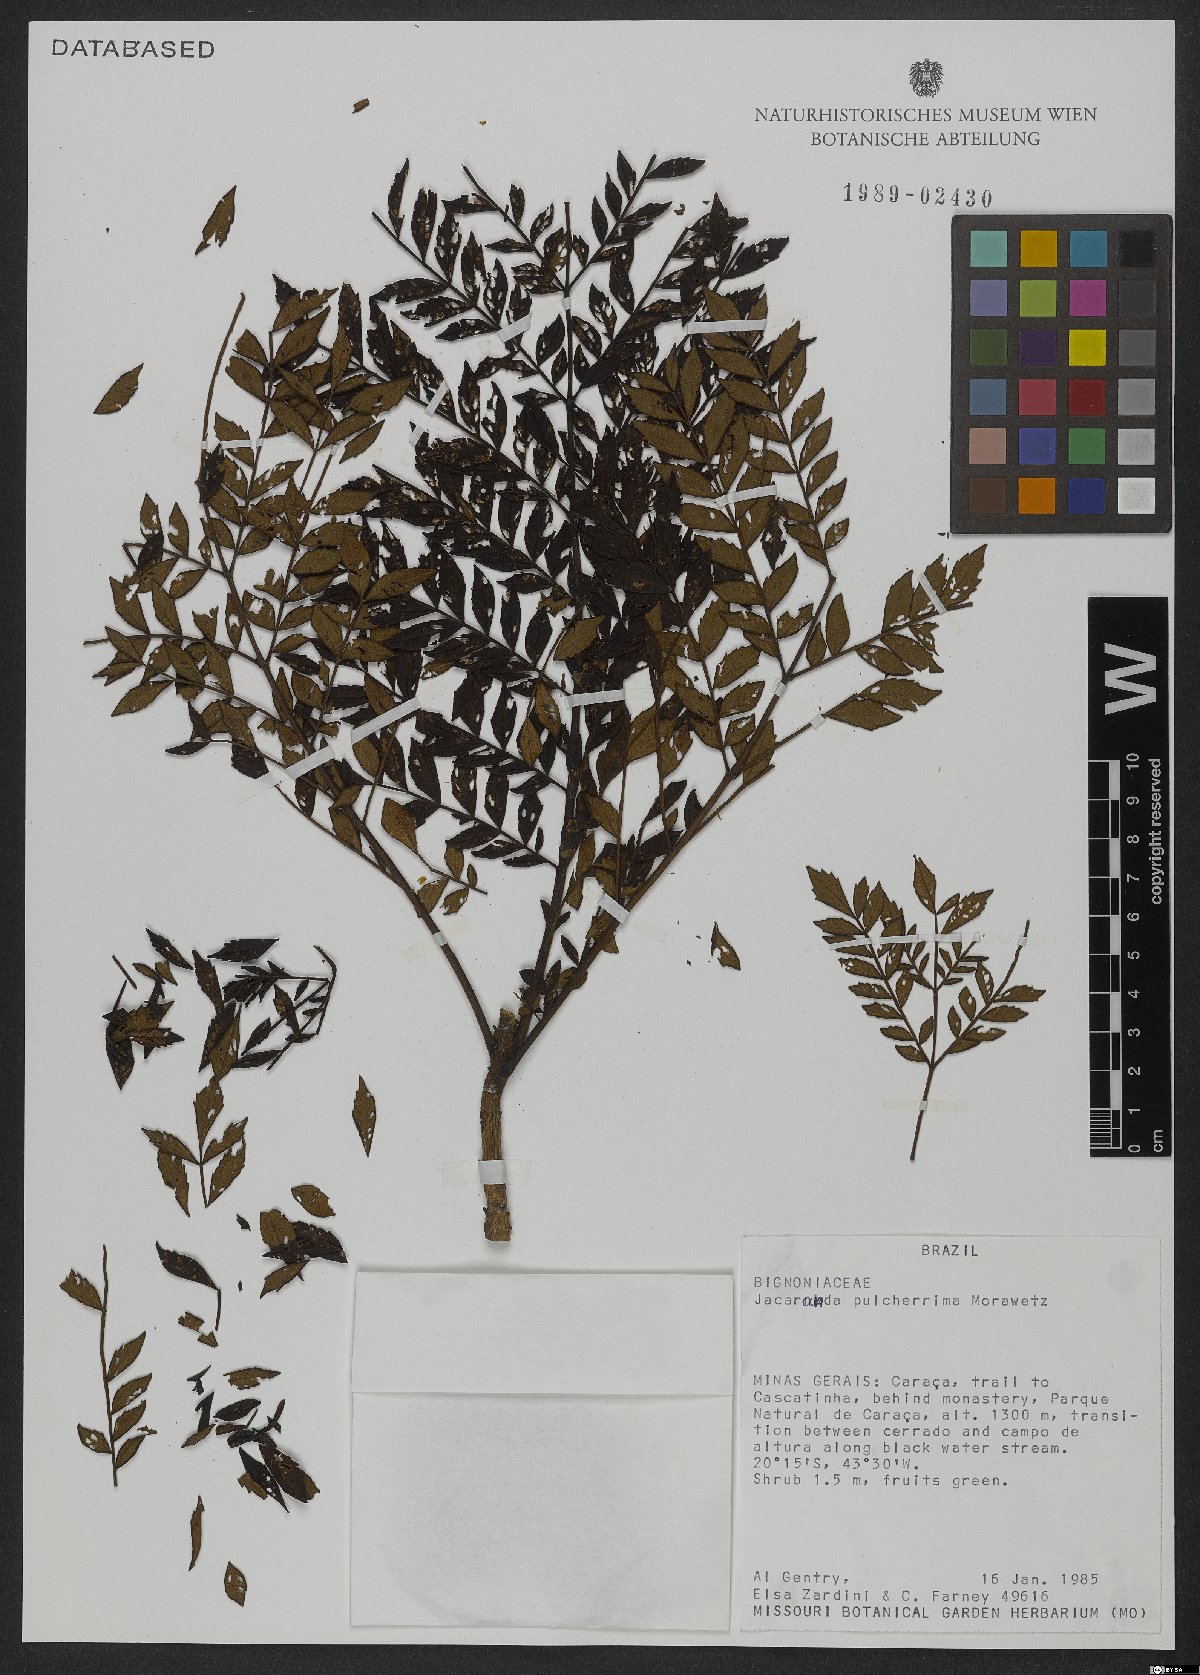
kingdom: Plantae
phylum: Tracheophyta
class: Magnoliopsida
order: Lamiales
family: Bignoniaceae
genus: Jacaranda
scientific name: Jacaranda pulcherrima
